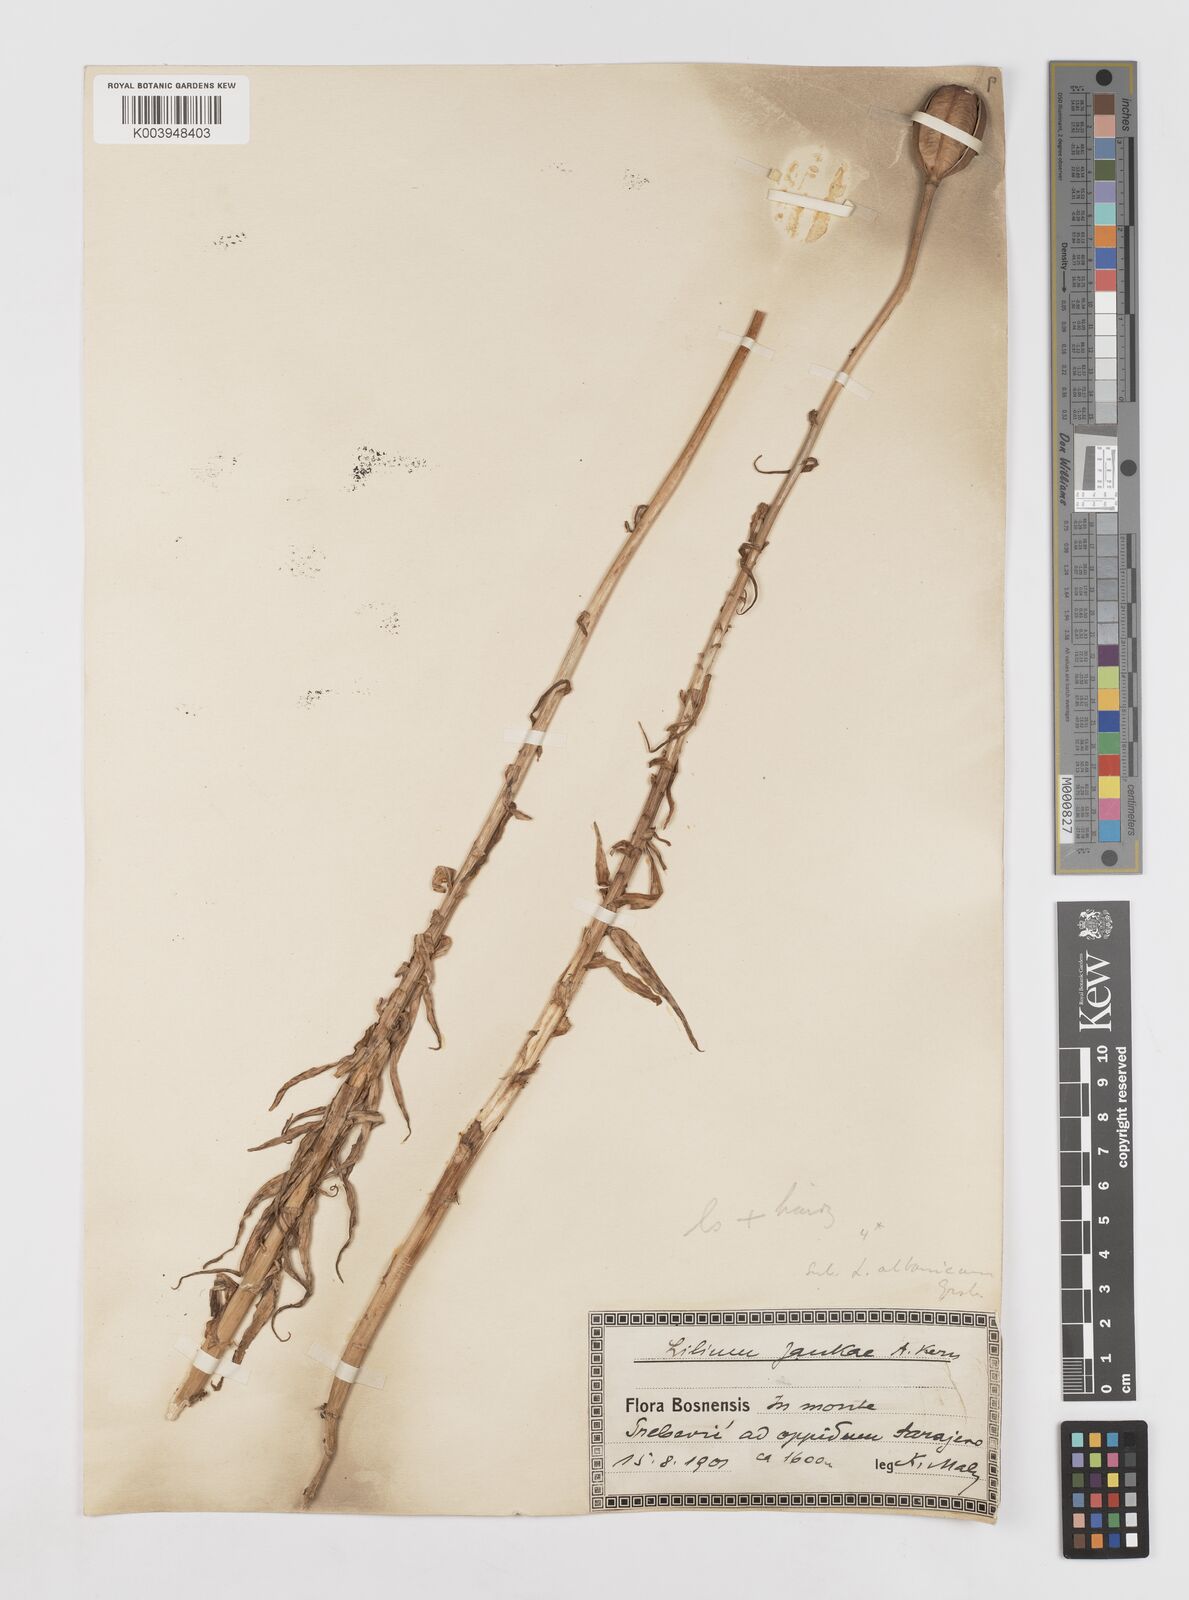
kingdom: Plantae
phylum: Tracheophyta
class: Liliopsida
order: Liliales
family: Liliaceae
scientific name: Liliaceae
